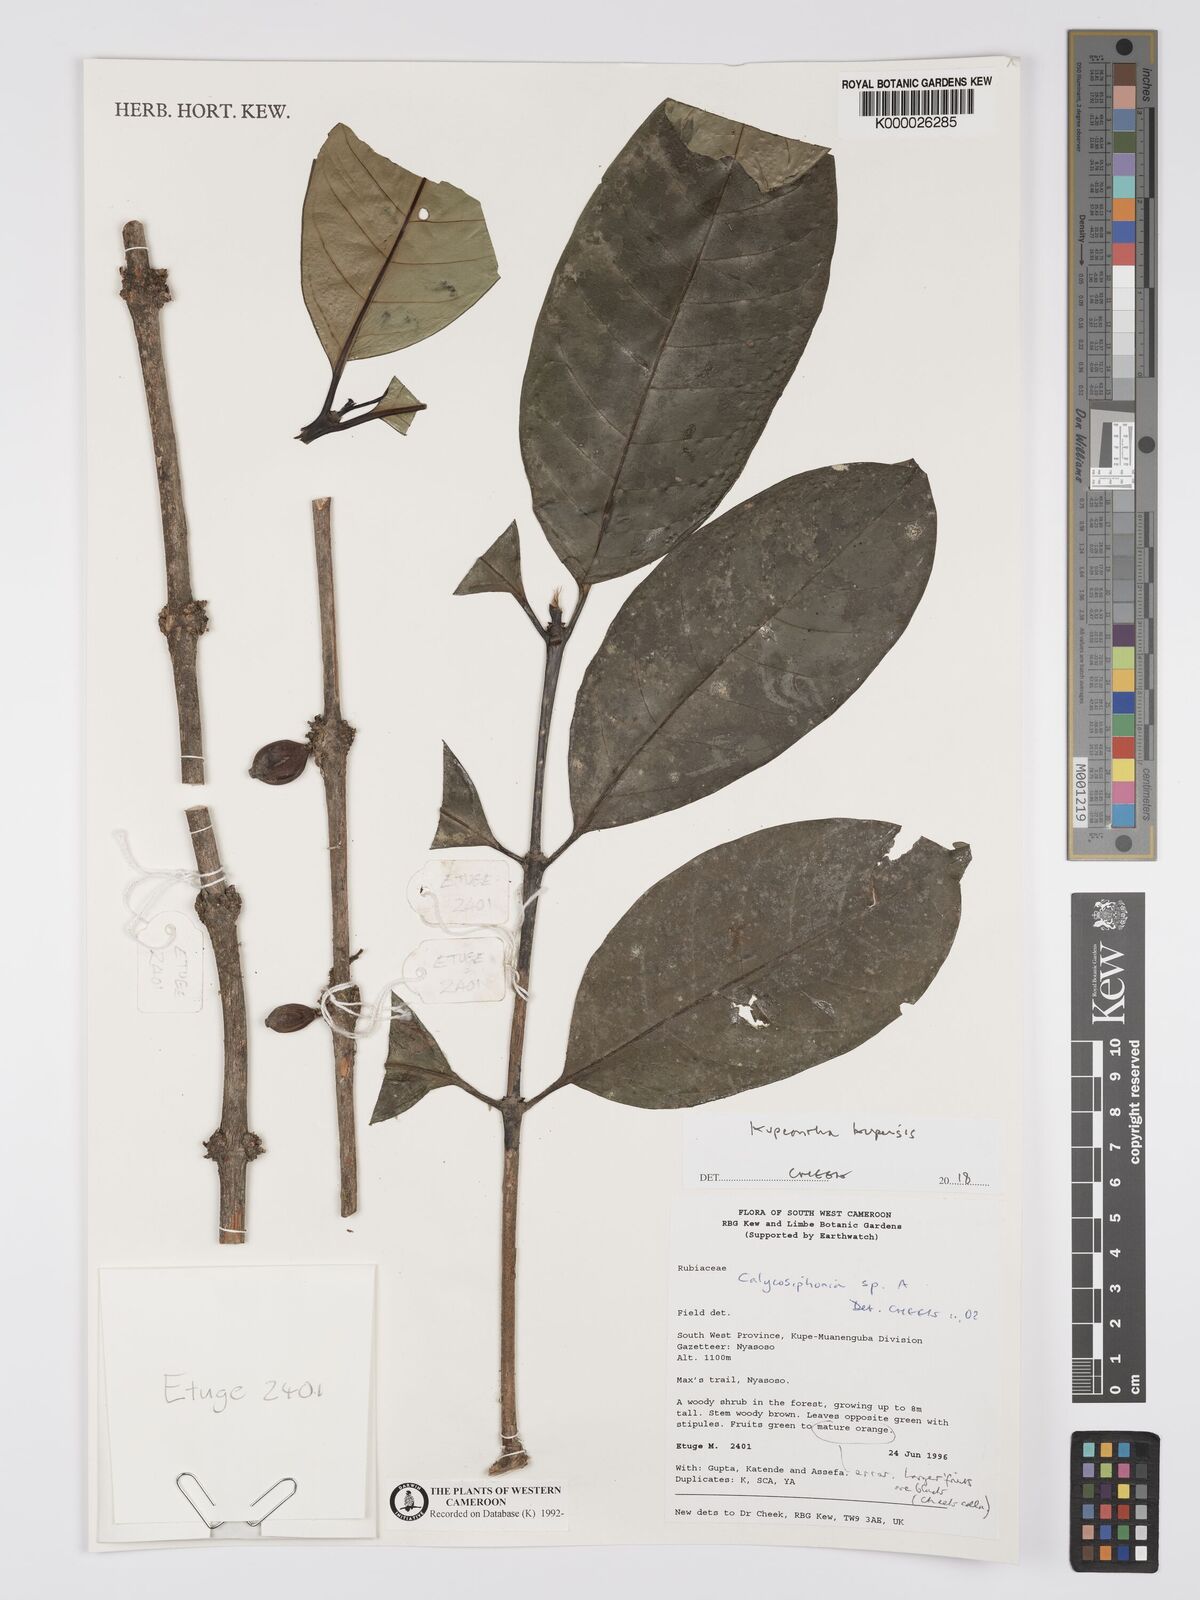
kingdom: Plantae
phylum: Tracheophyta
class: Magnoliopsida
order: Gentianales
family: Rubiaceae
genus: Argocoffeopsis
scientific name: Argocoffeopsis
